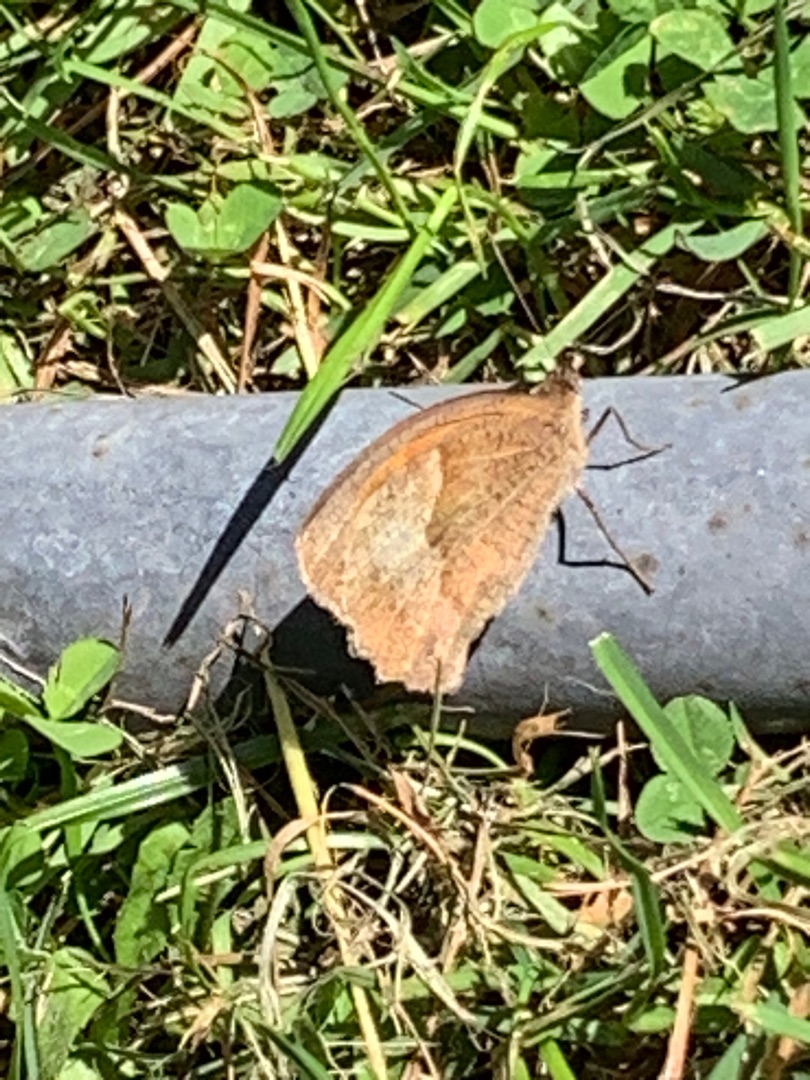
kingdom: Animalia
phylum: Arthropoda
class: Insecta
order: Lepidoptera
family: Nymphalidae
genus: Maniola
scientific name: Maniola jurtina
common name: Græsrandøje
